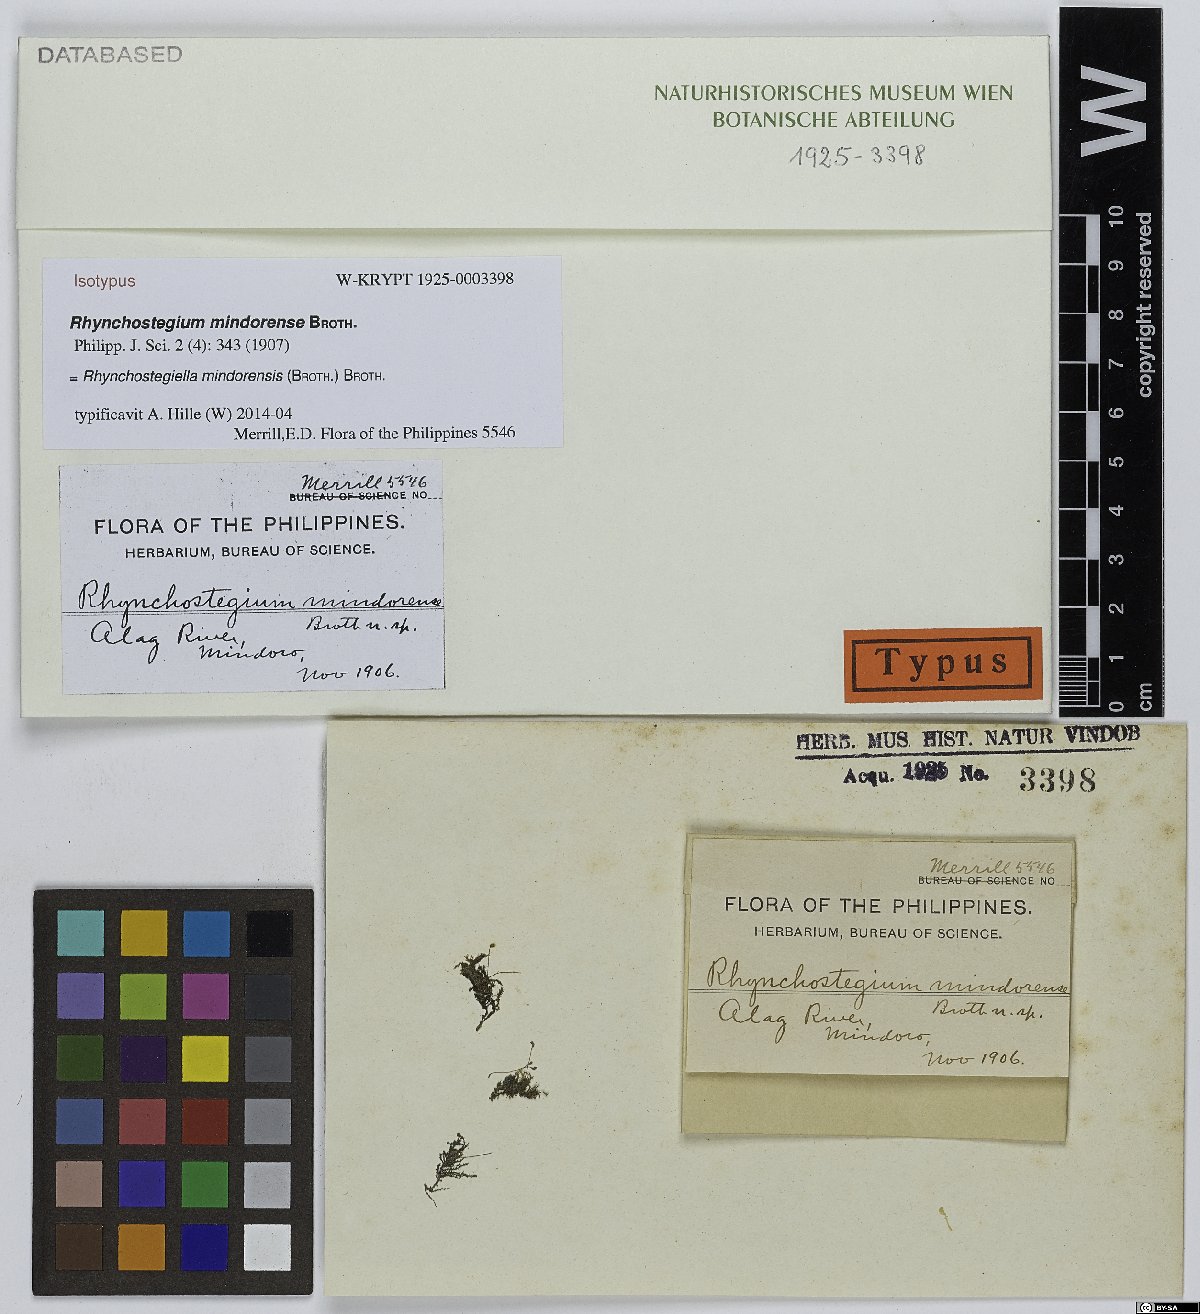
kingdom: Plantae
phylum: Bryophyta
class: Bryopsida
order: Hypnales
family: Brachytheciaceae
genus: Rhynchostegiella
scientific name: Rhynchostegiella mindorensis
